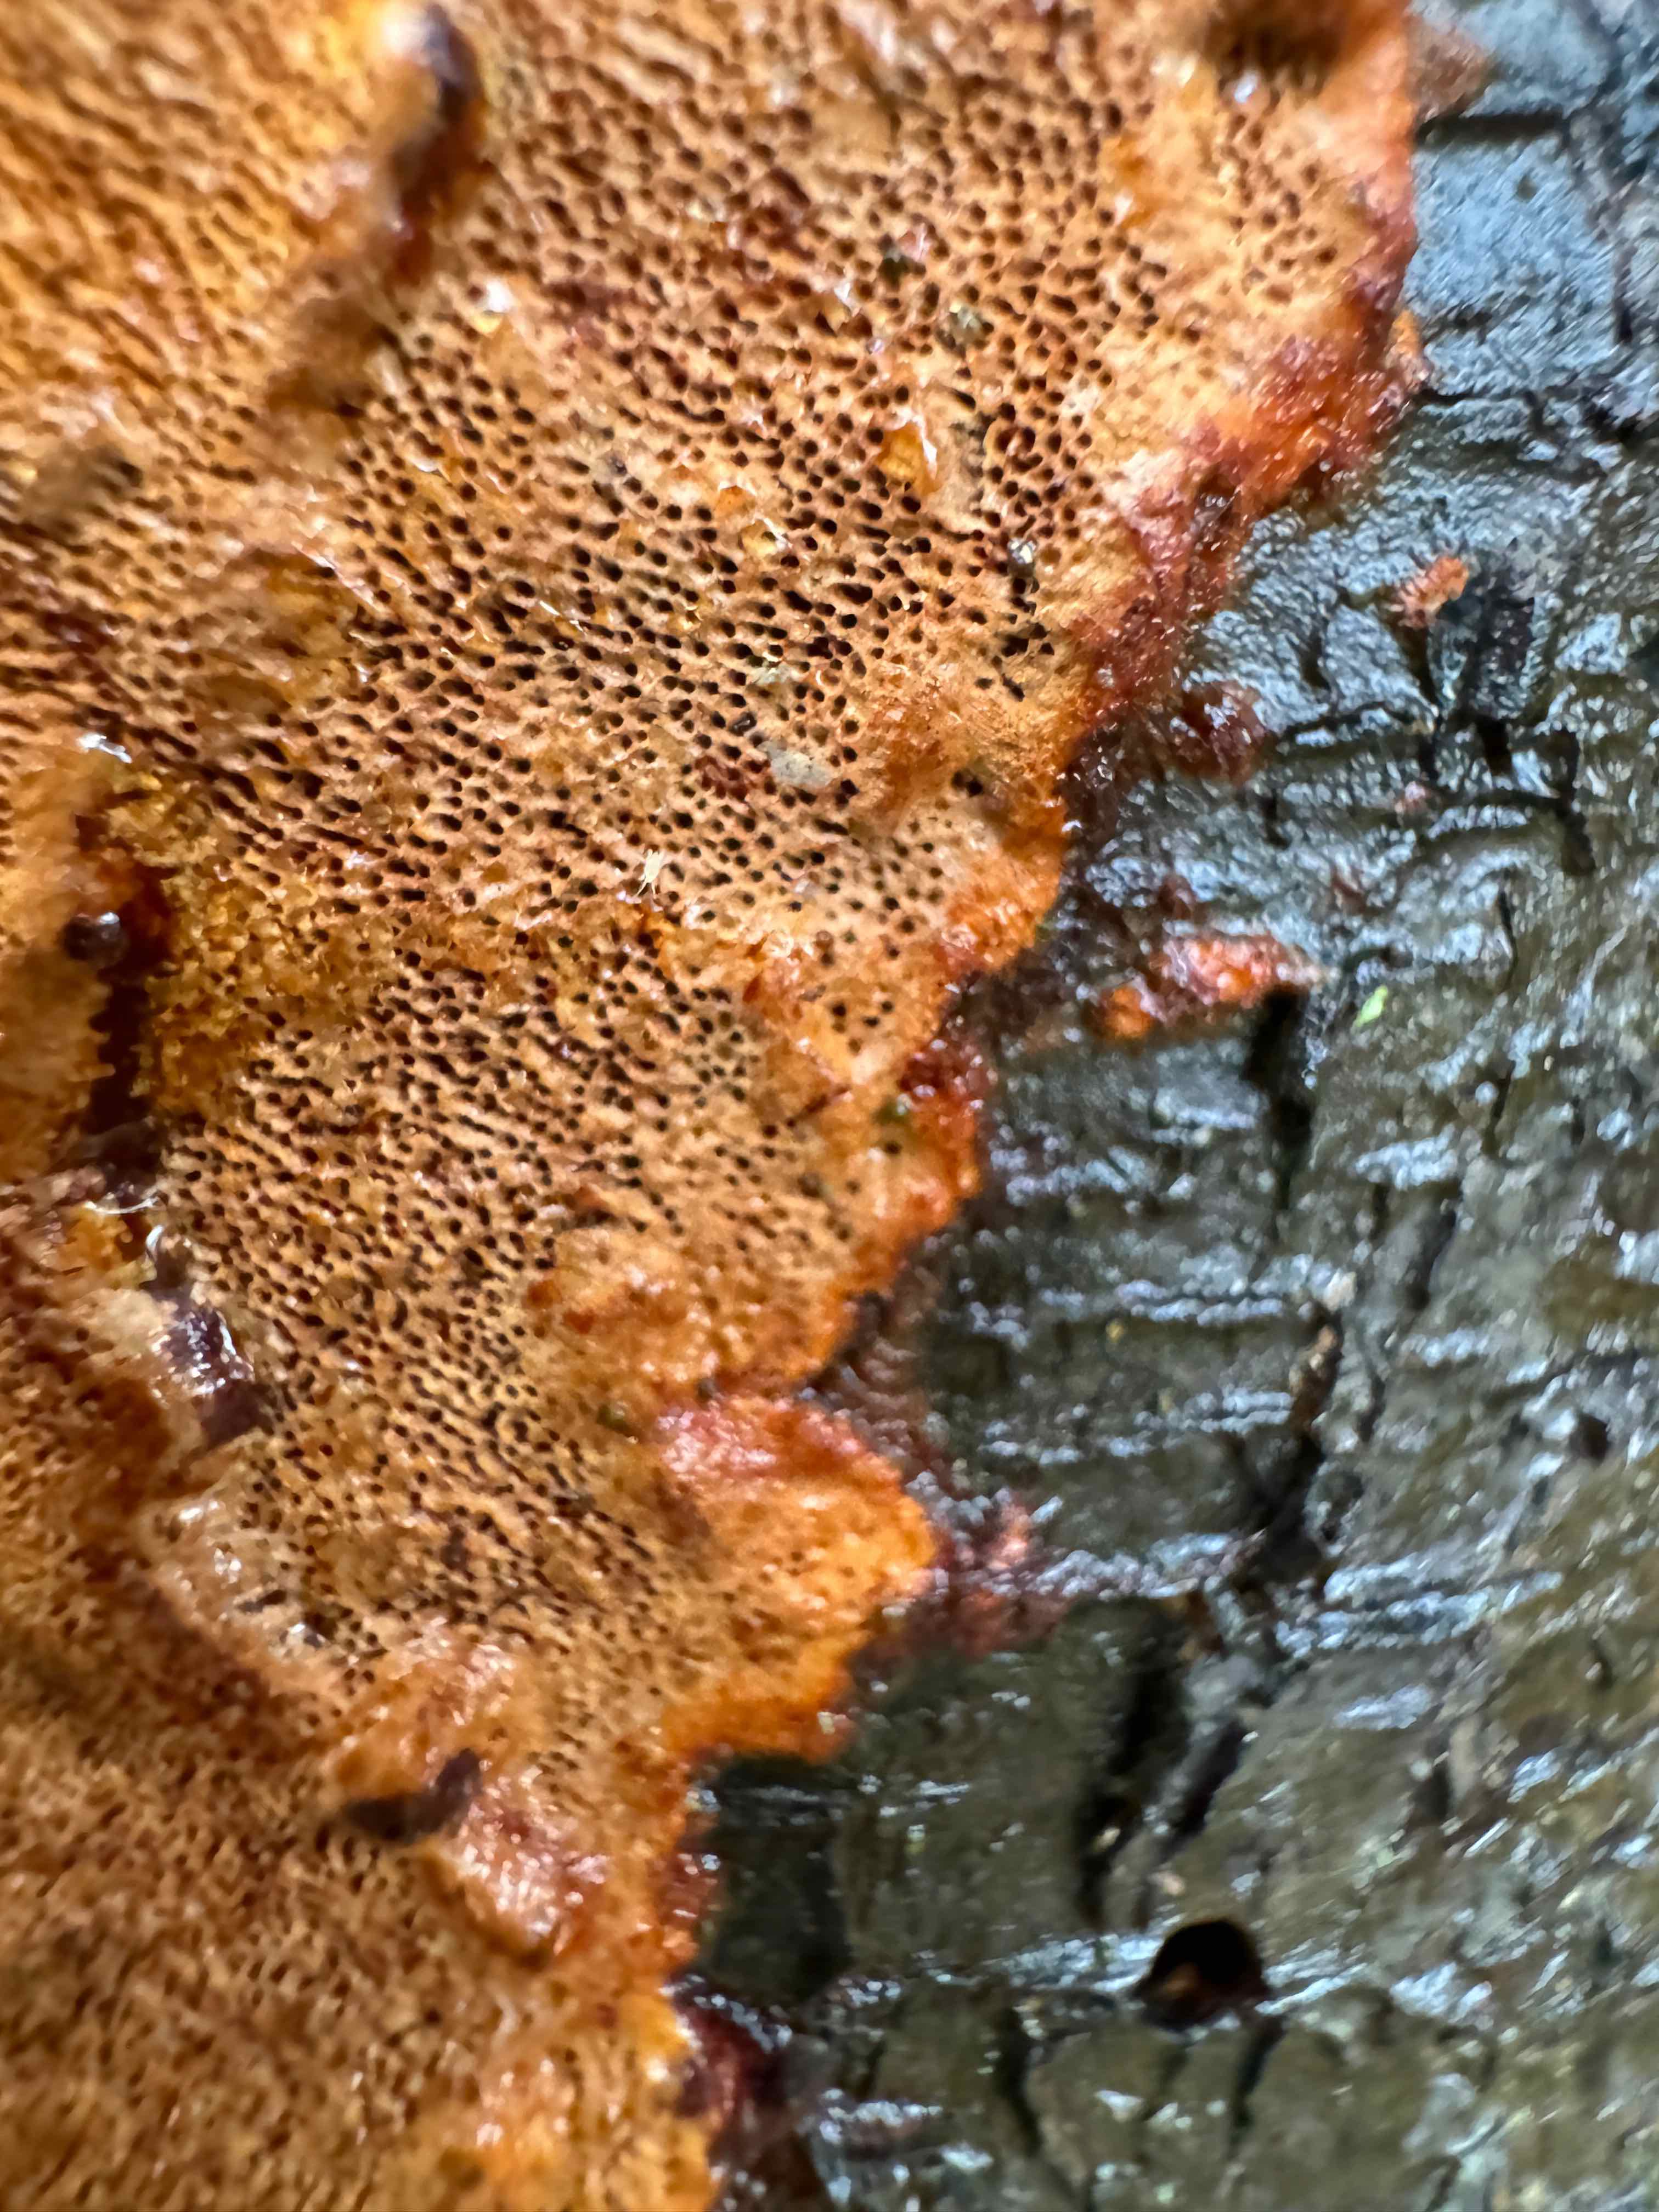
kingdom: Fungi
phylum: Basidiomycota
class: Agaricomycetes
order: Hymenochaetales
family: Hymenochaetaceae
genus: Fuscoporia
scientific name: Fuscoporia ferrea
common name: skorpe-ildporesvamp
